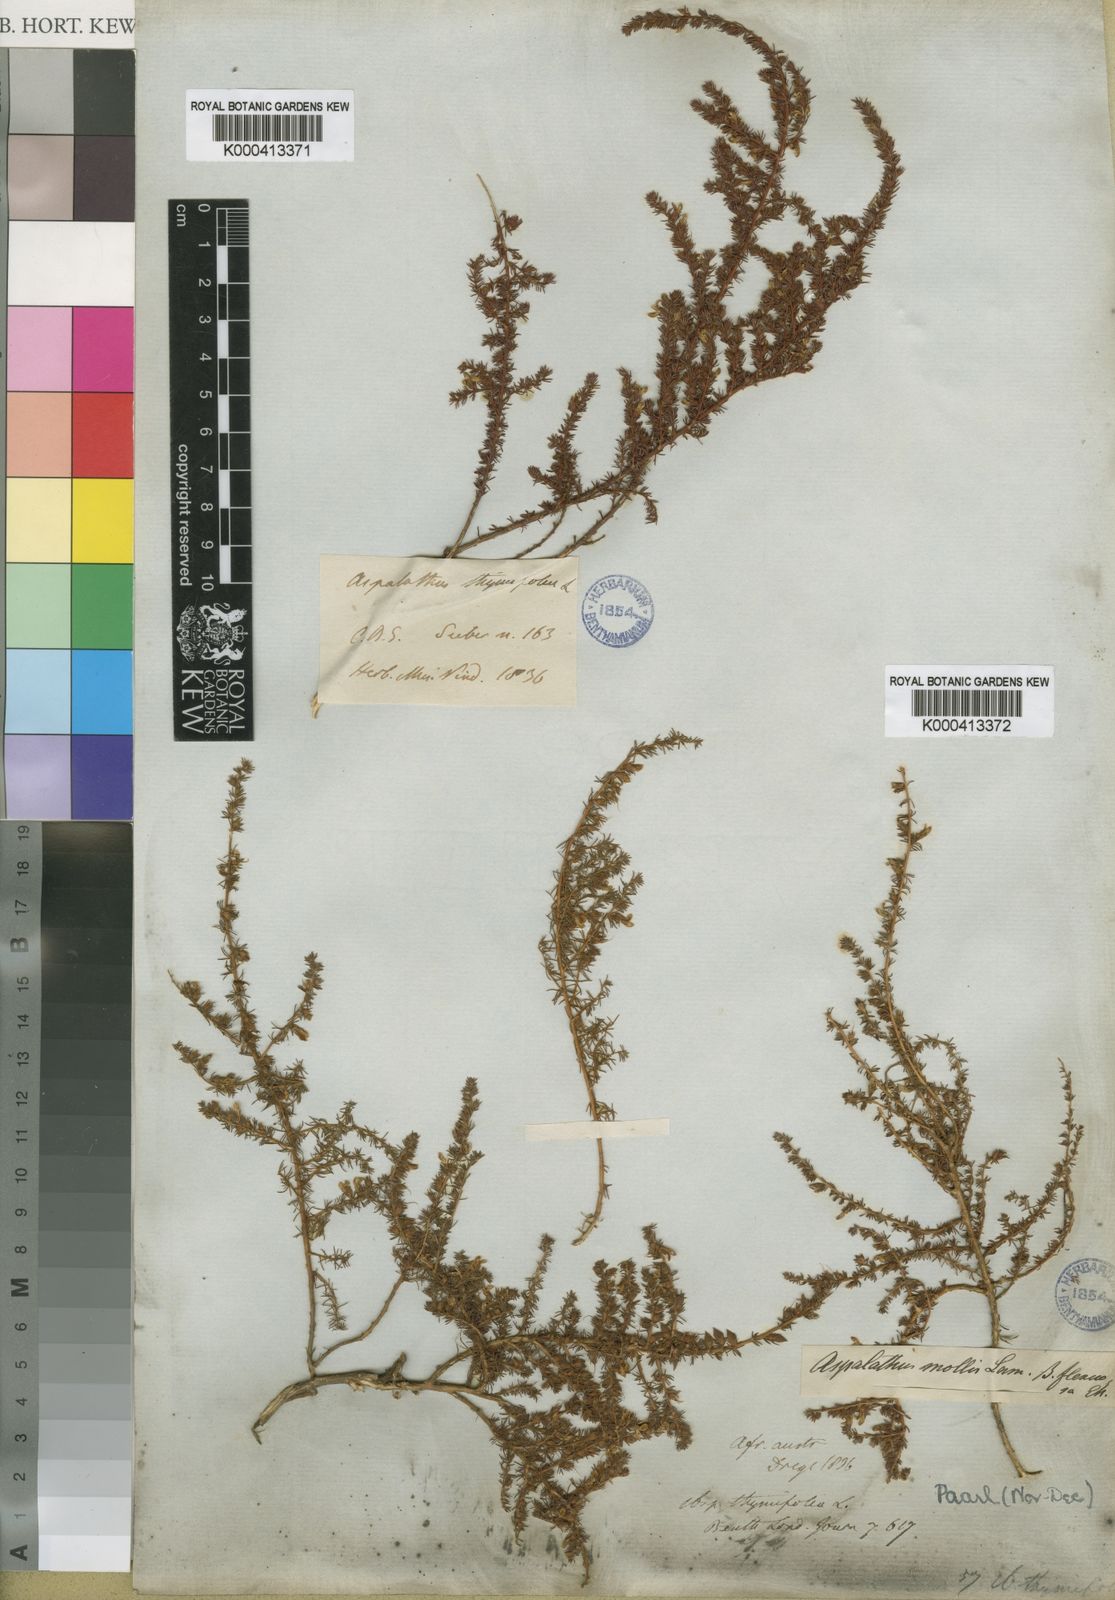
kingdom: Plantae
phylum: Tracheophyta
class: Magnoliopsida
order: Fabales
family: Fabaceae
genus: Aspalathus
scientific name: Aspalathus hispida
